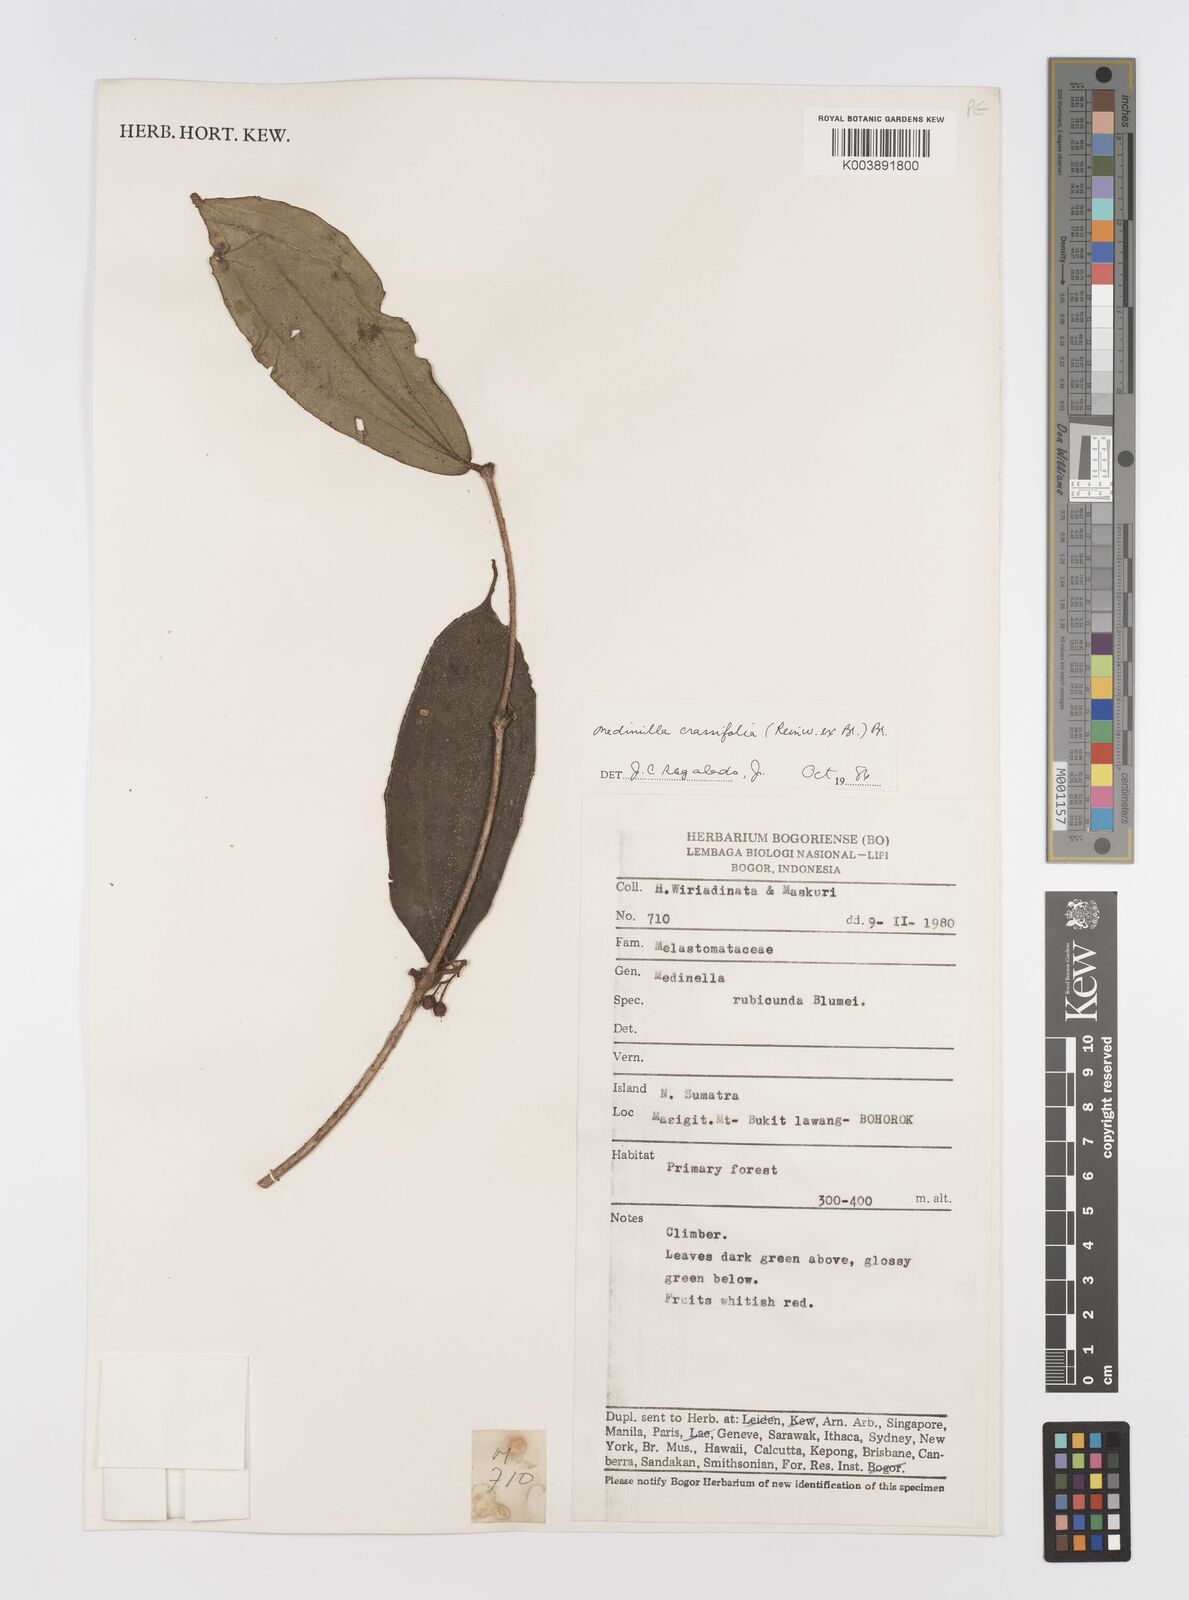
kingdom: Plantae
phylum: Tracheophyta
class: Magnoliopsida
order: Myrtales
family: Melastomataceae
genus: Medinilla
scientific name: Medinilla crassifolia
